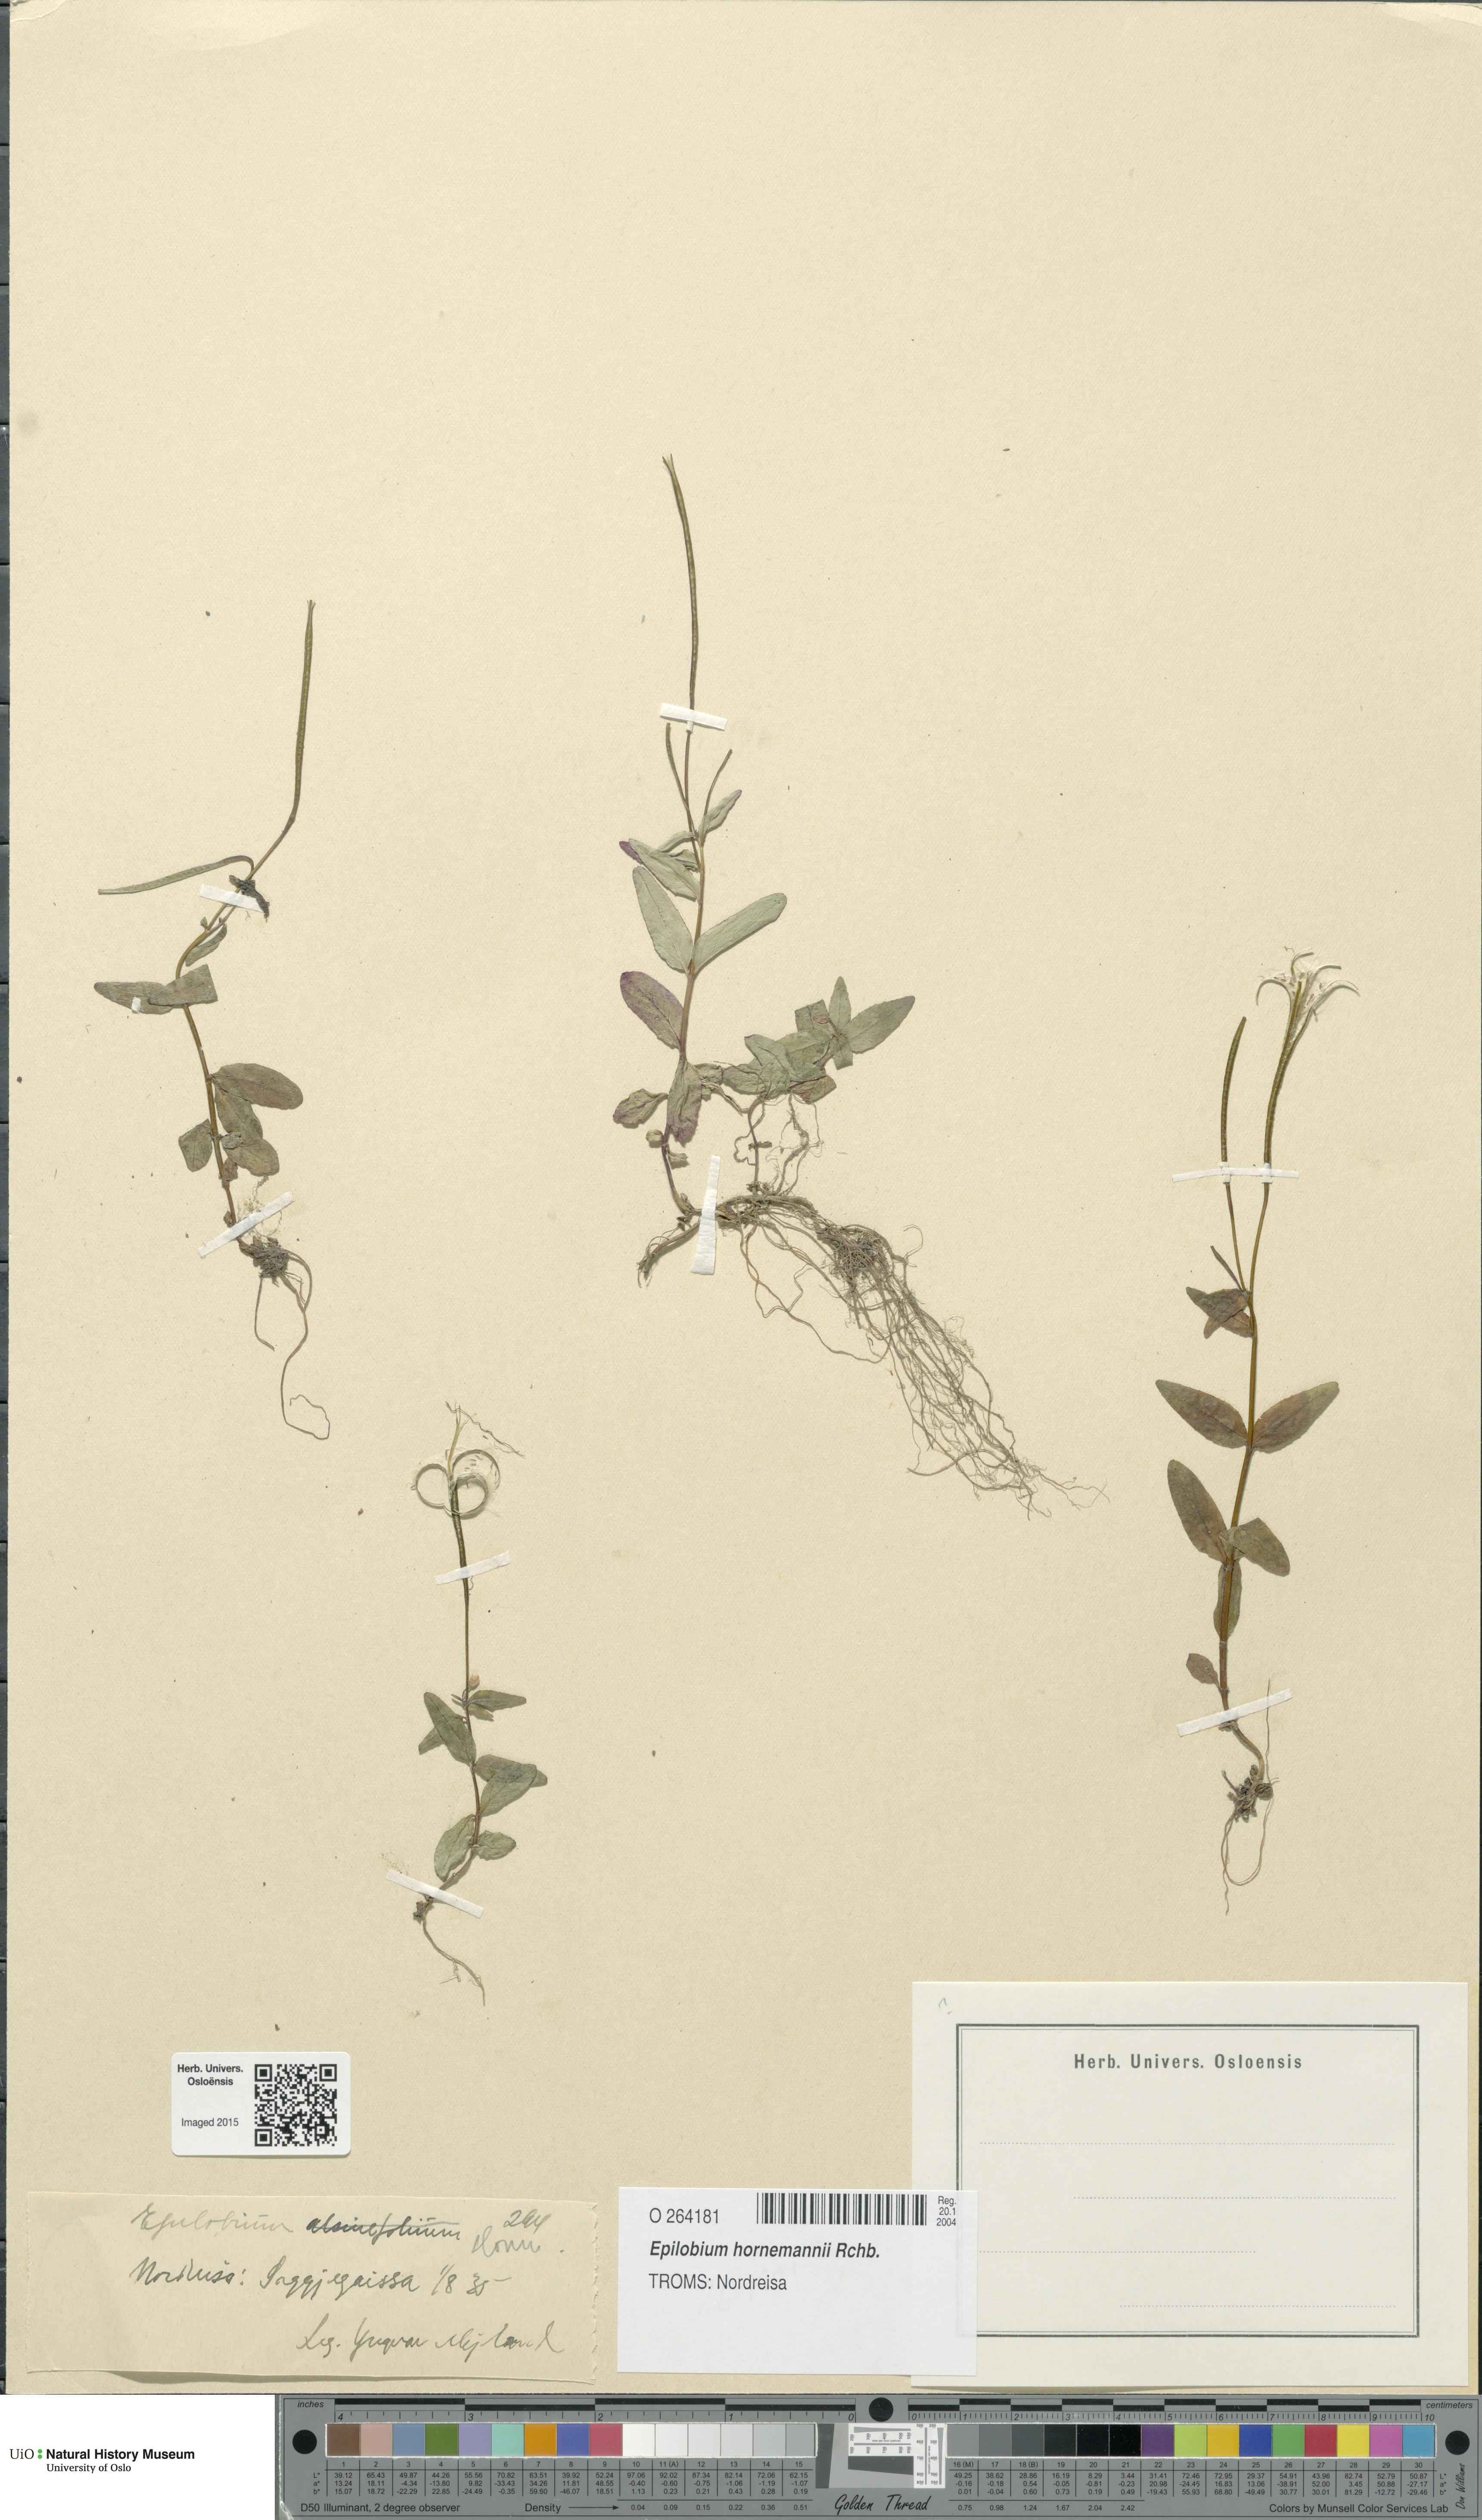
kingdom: Plantae
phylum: Tracheophyta
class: Magnoliopsida
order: Myrtales
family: Onagraceae
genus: Epilobium
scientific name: Epilobium hornemannii
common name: Hornemann's willowherb
